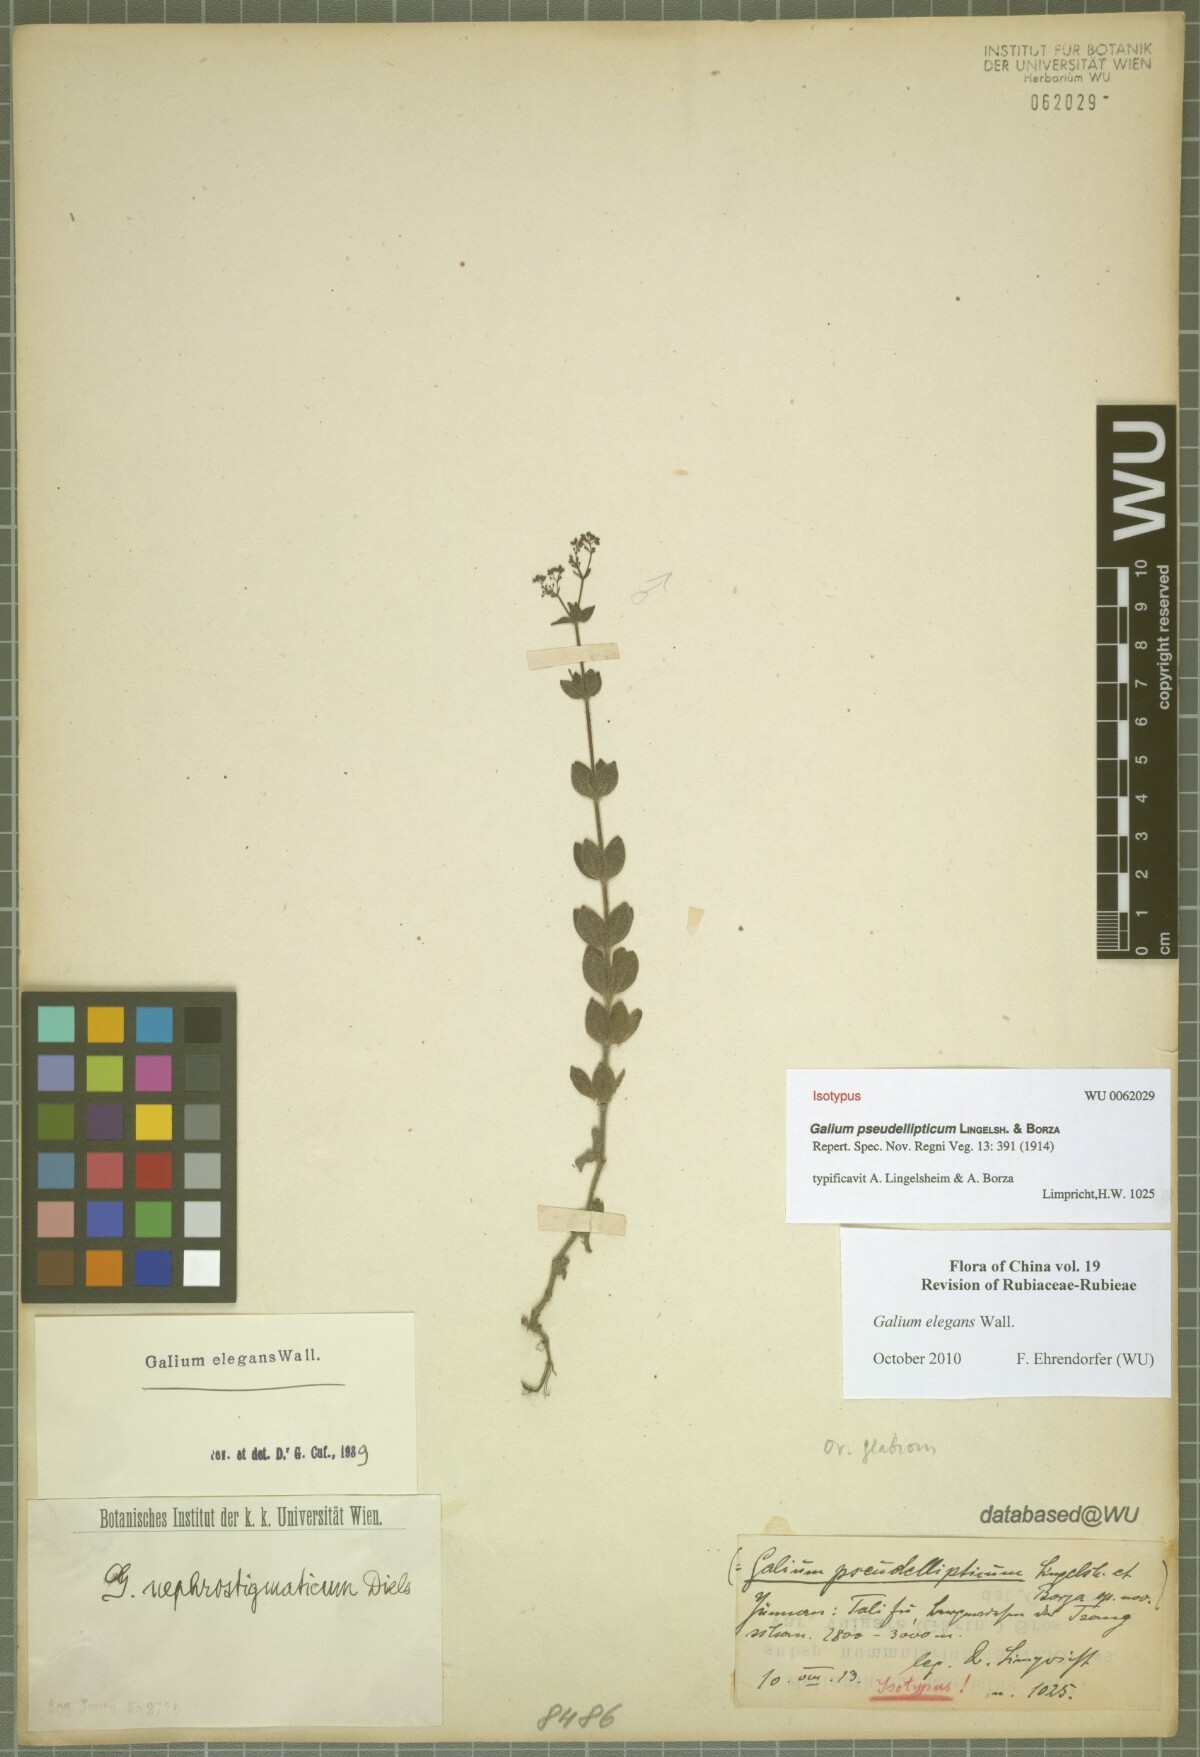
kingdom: Plantae
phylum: Tracheophyta
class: Magnoliopsida
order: Gentianales
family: Rubiaceae
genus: Galium
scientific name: Galium elegans
